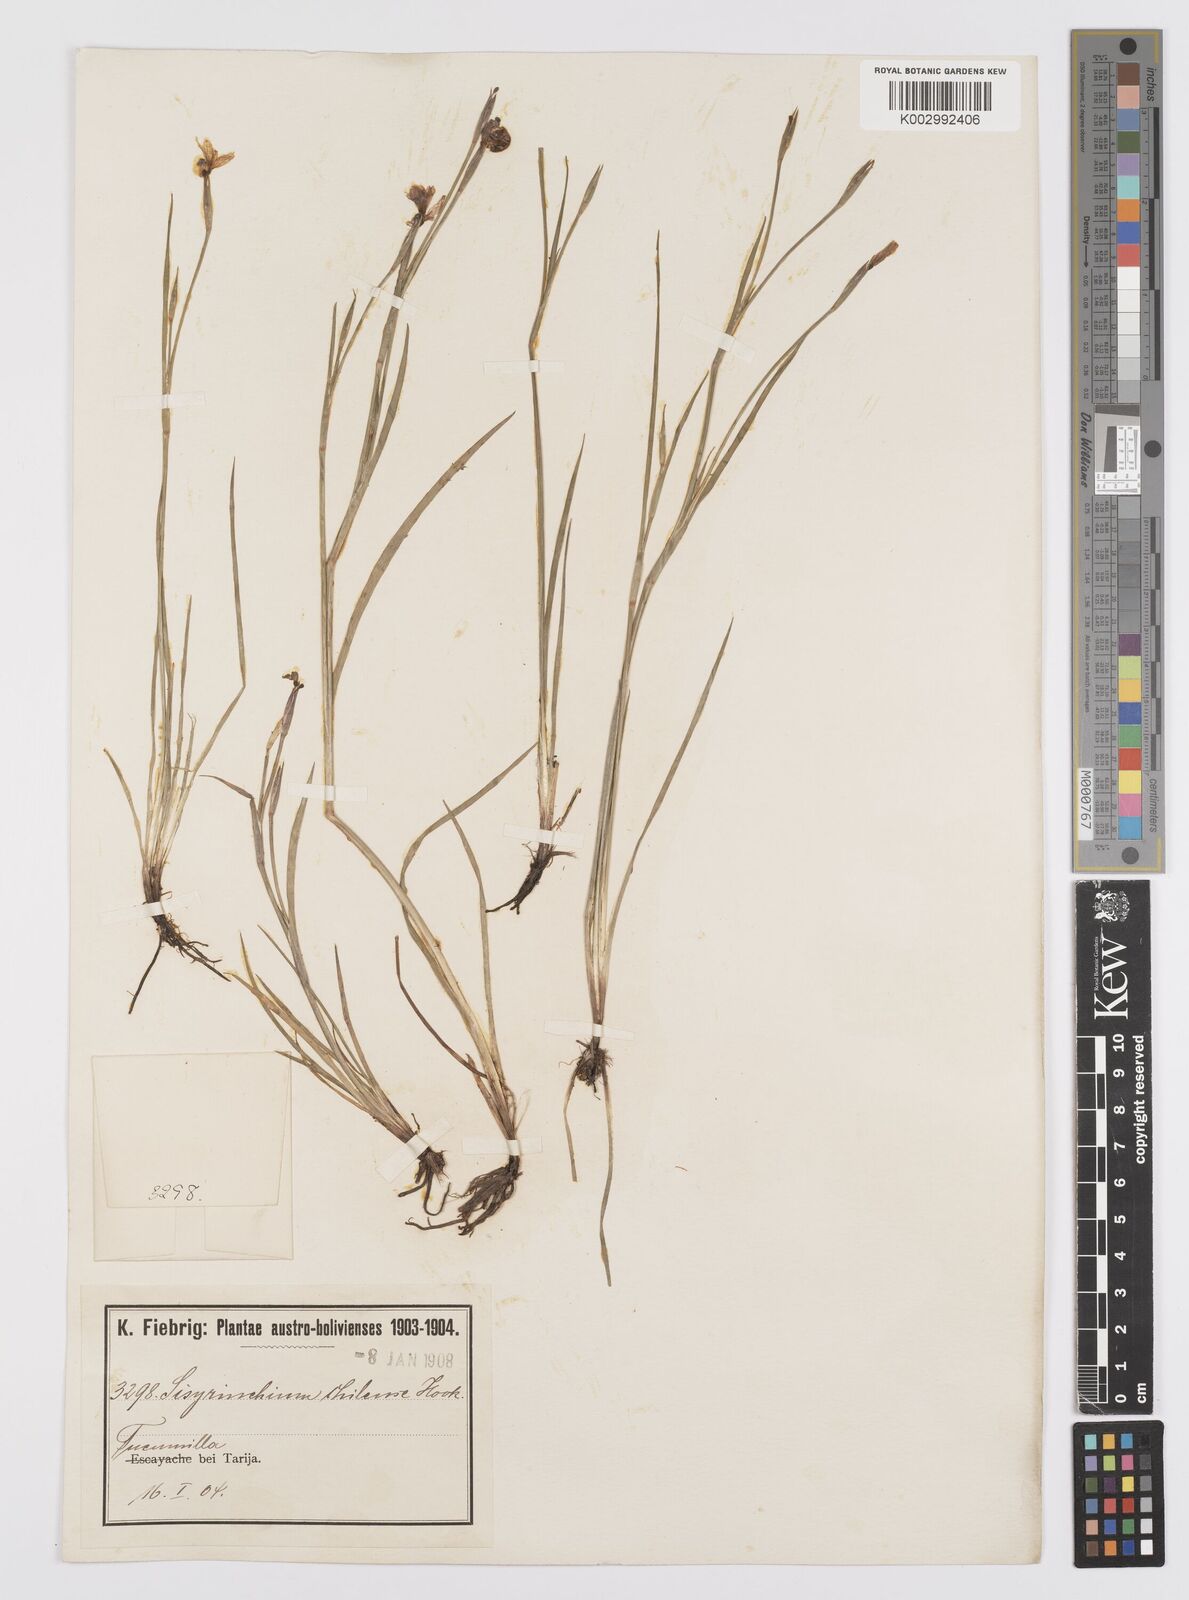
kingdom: Plantae
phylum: Tracheophyta
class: Liliopsida
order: Asparagales
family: Iridaceae
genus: Sisyrinchium
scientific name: Sisyrinchium chilense
